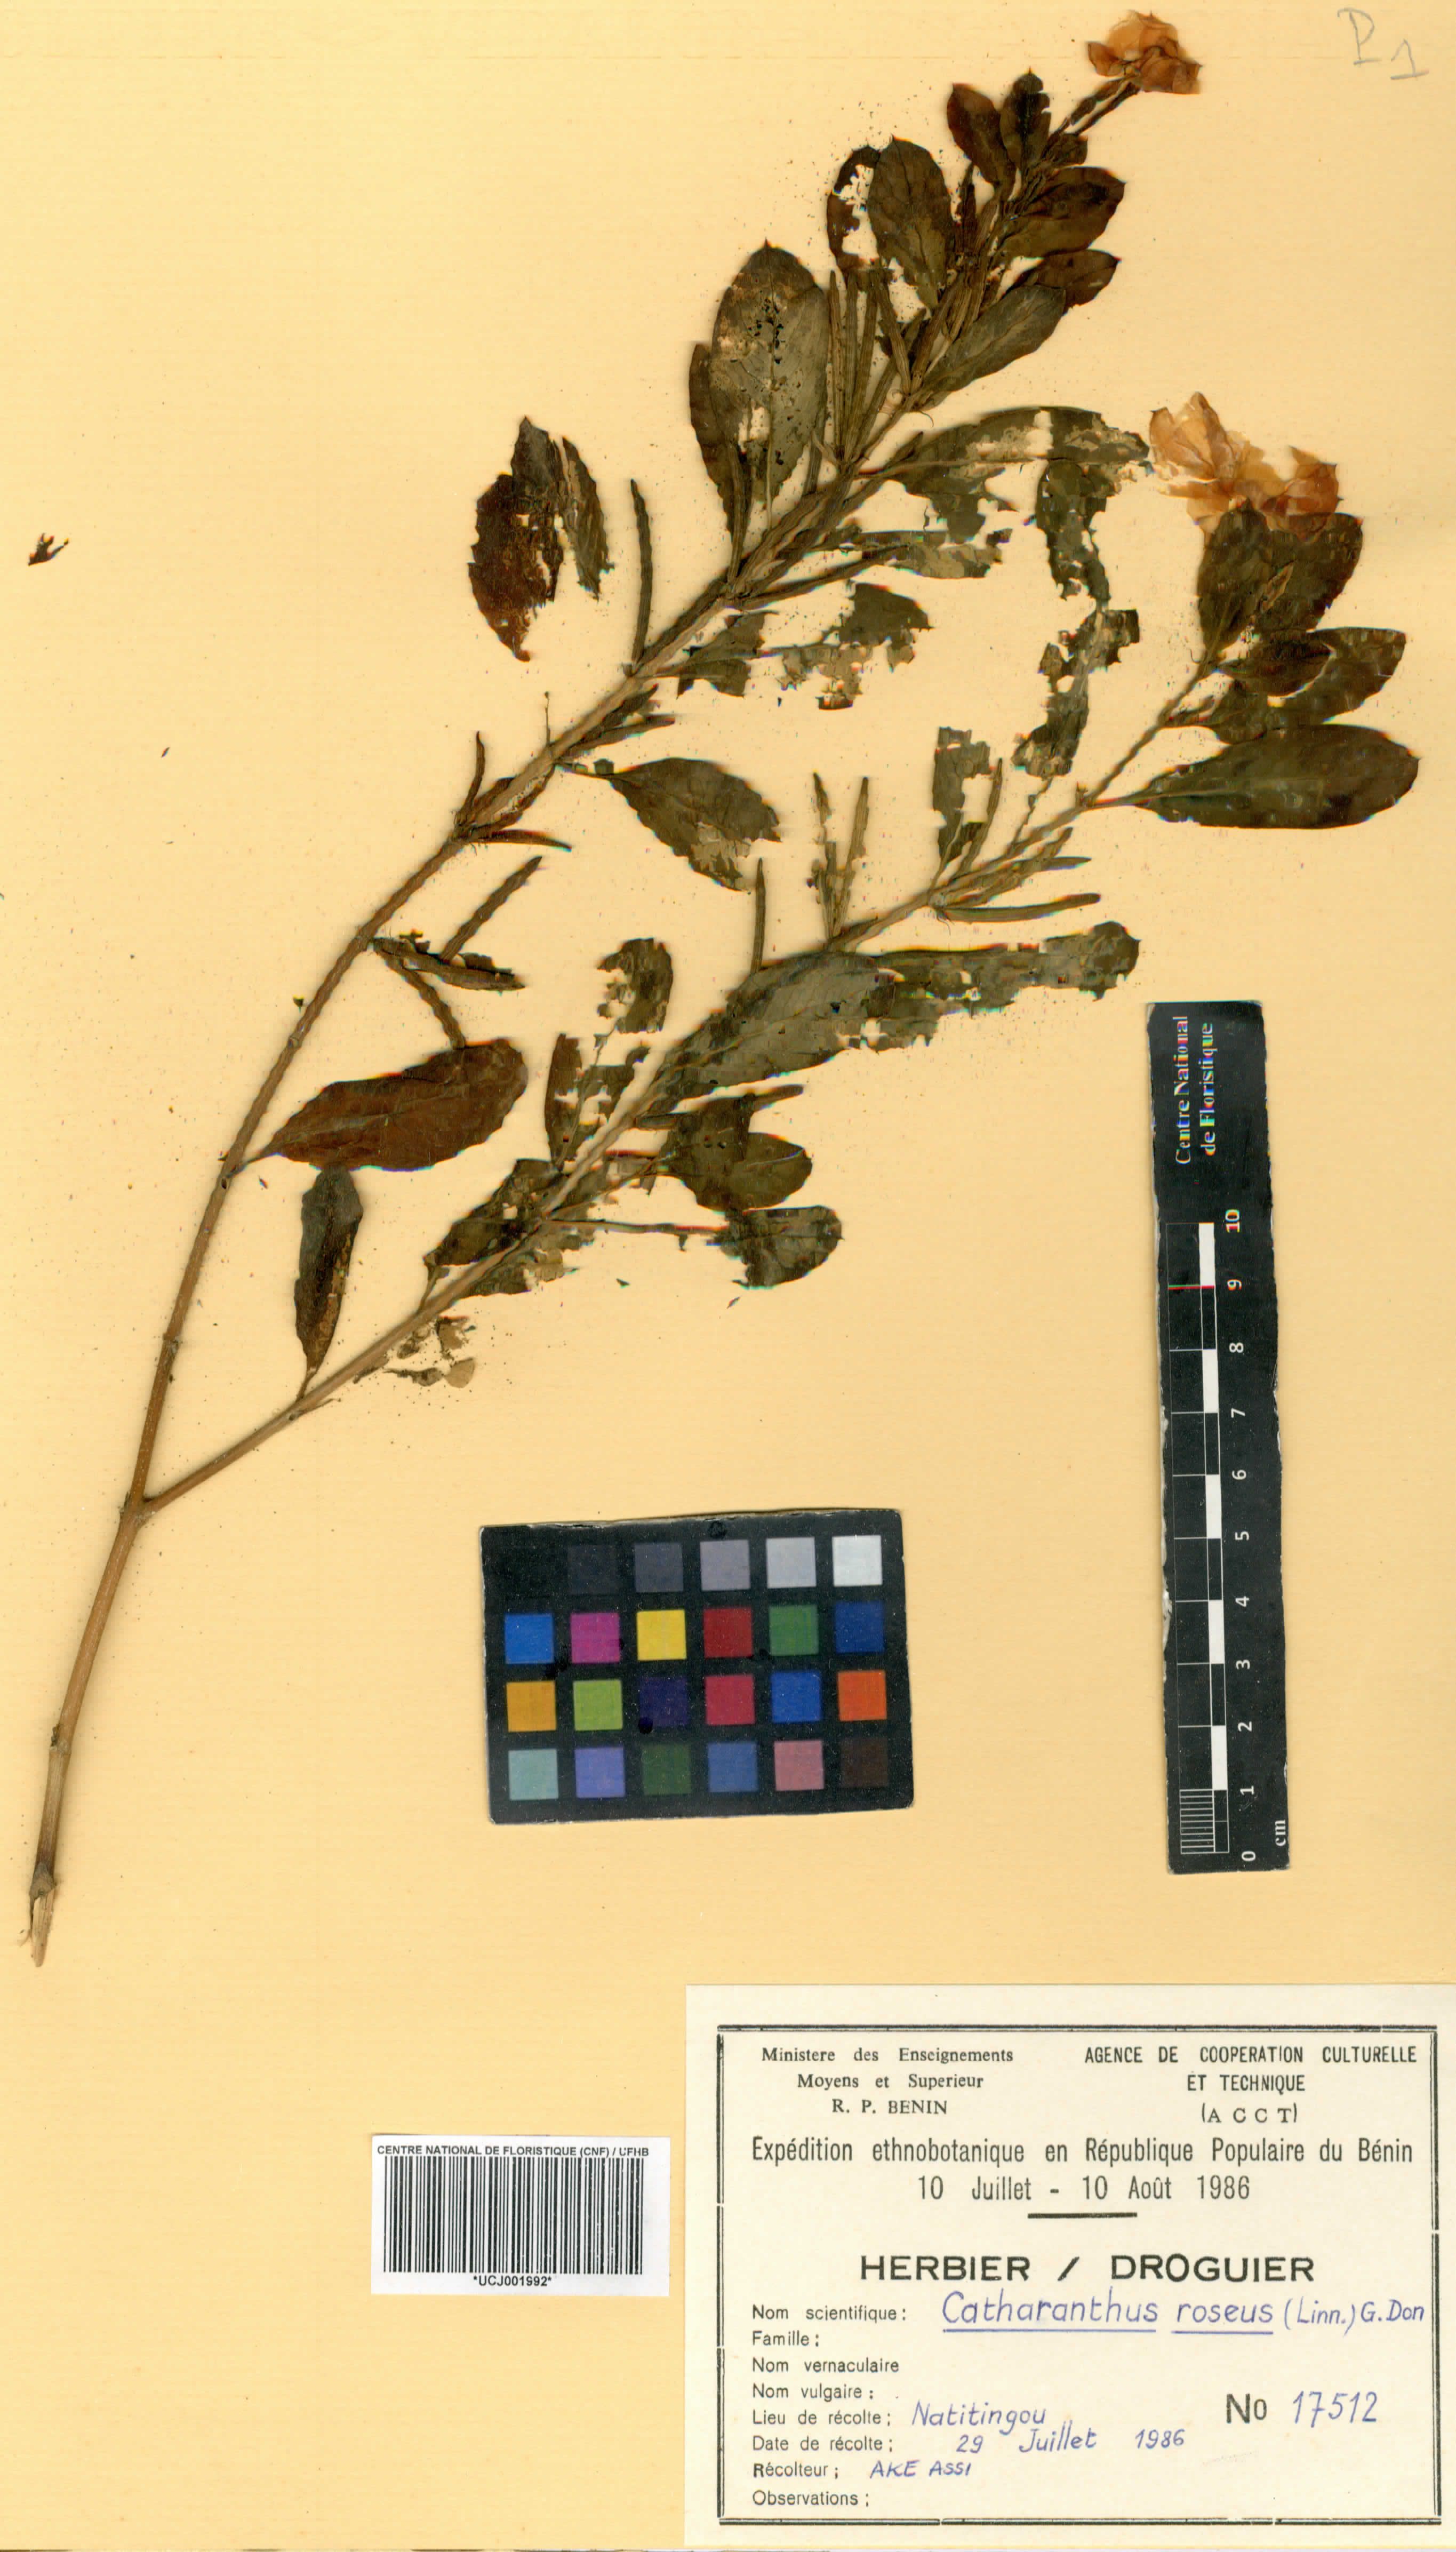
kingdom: Plantae
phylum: Tracheophyta
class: Magnoliopsida
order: Gentianales
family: Apocynaceae
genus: Catharanthus
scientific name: Catharanthus roseus
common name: Madagascar periwinkle
